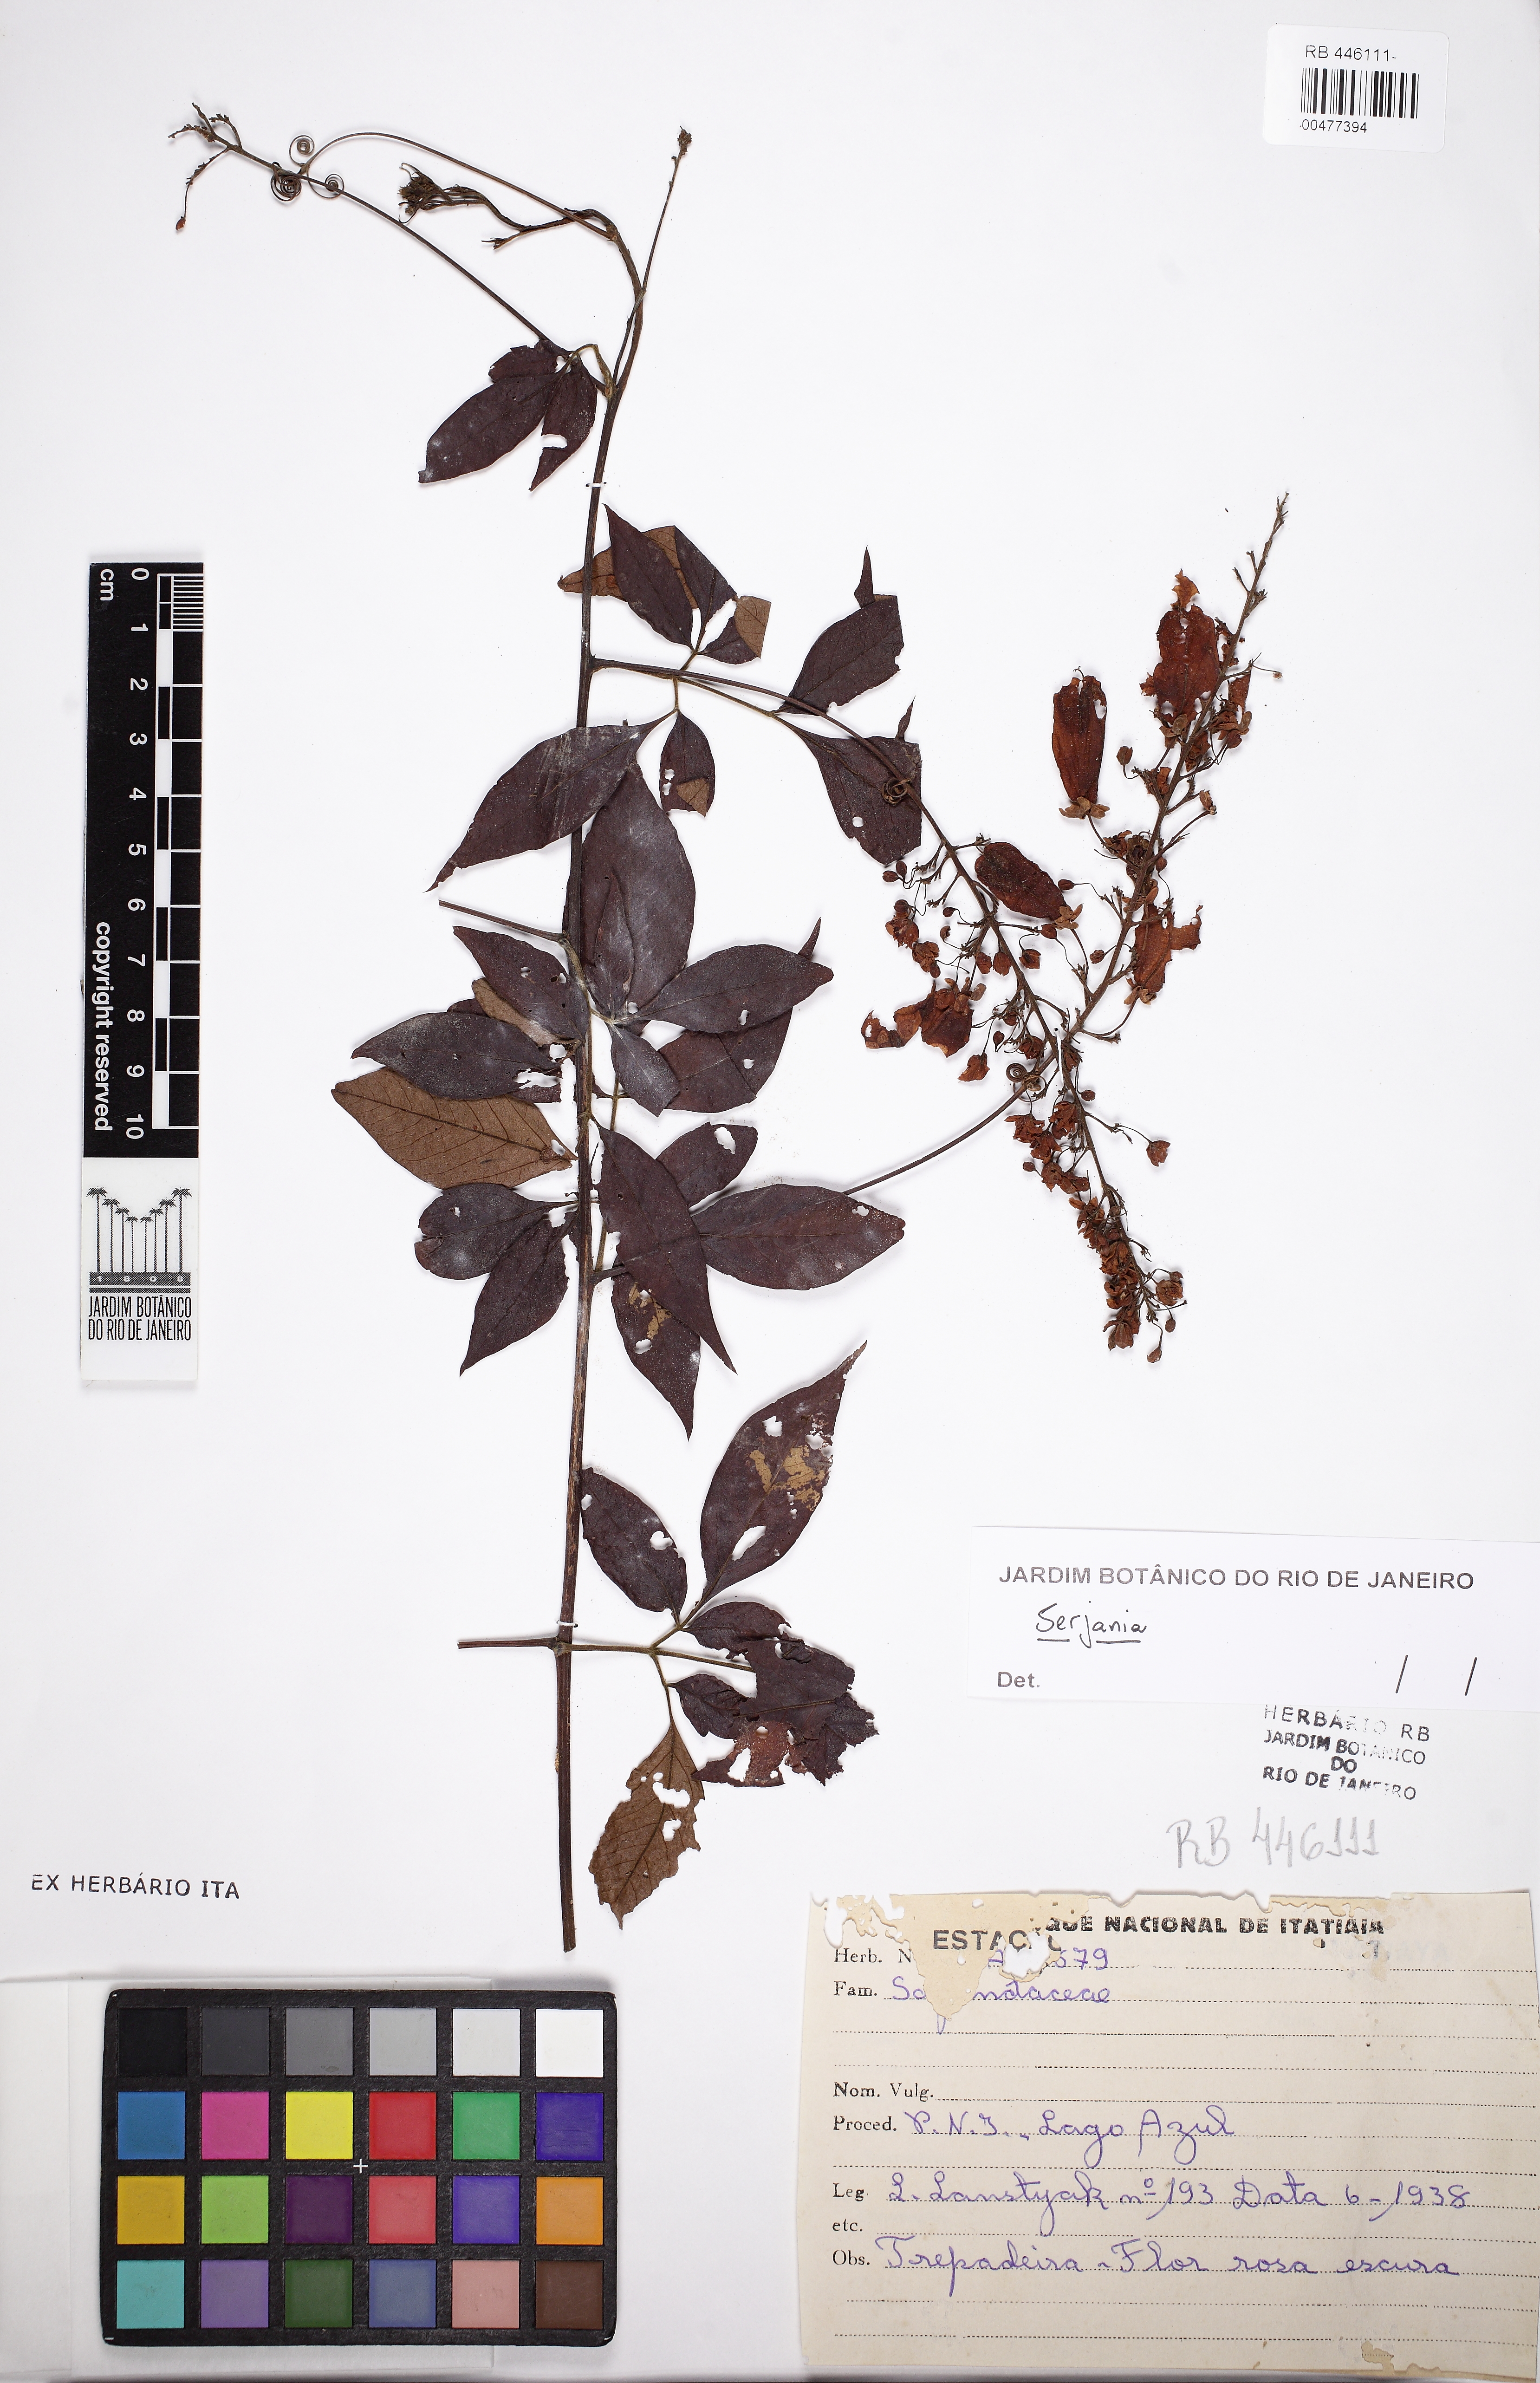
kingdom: Plantae
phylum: Tracheophyta
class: Magnoliopsida
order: Sapindales
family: Sapindaceae
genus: Serjania
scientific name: Serjania
